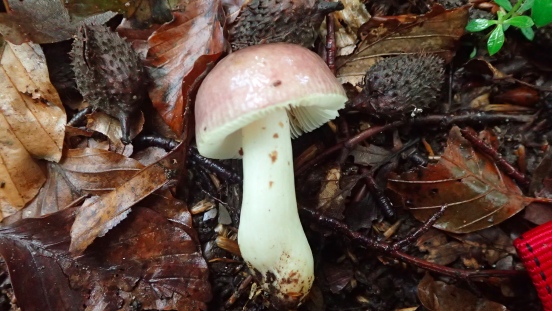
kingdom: Fungi
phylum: Basidiomycota
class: Agaricomycetes
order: Russulales
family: Russulaceae
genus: Russula
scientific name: Russula puellaris
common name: gulstokket skørhat
